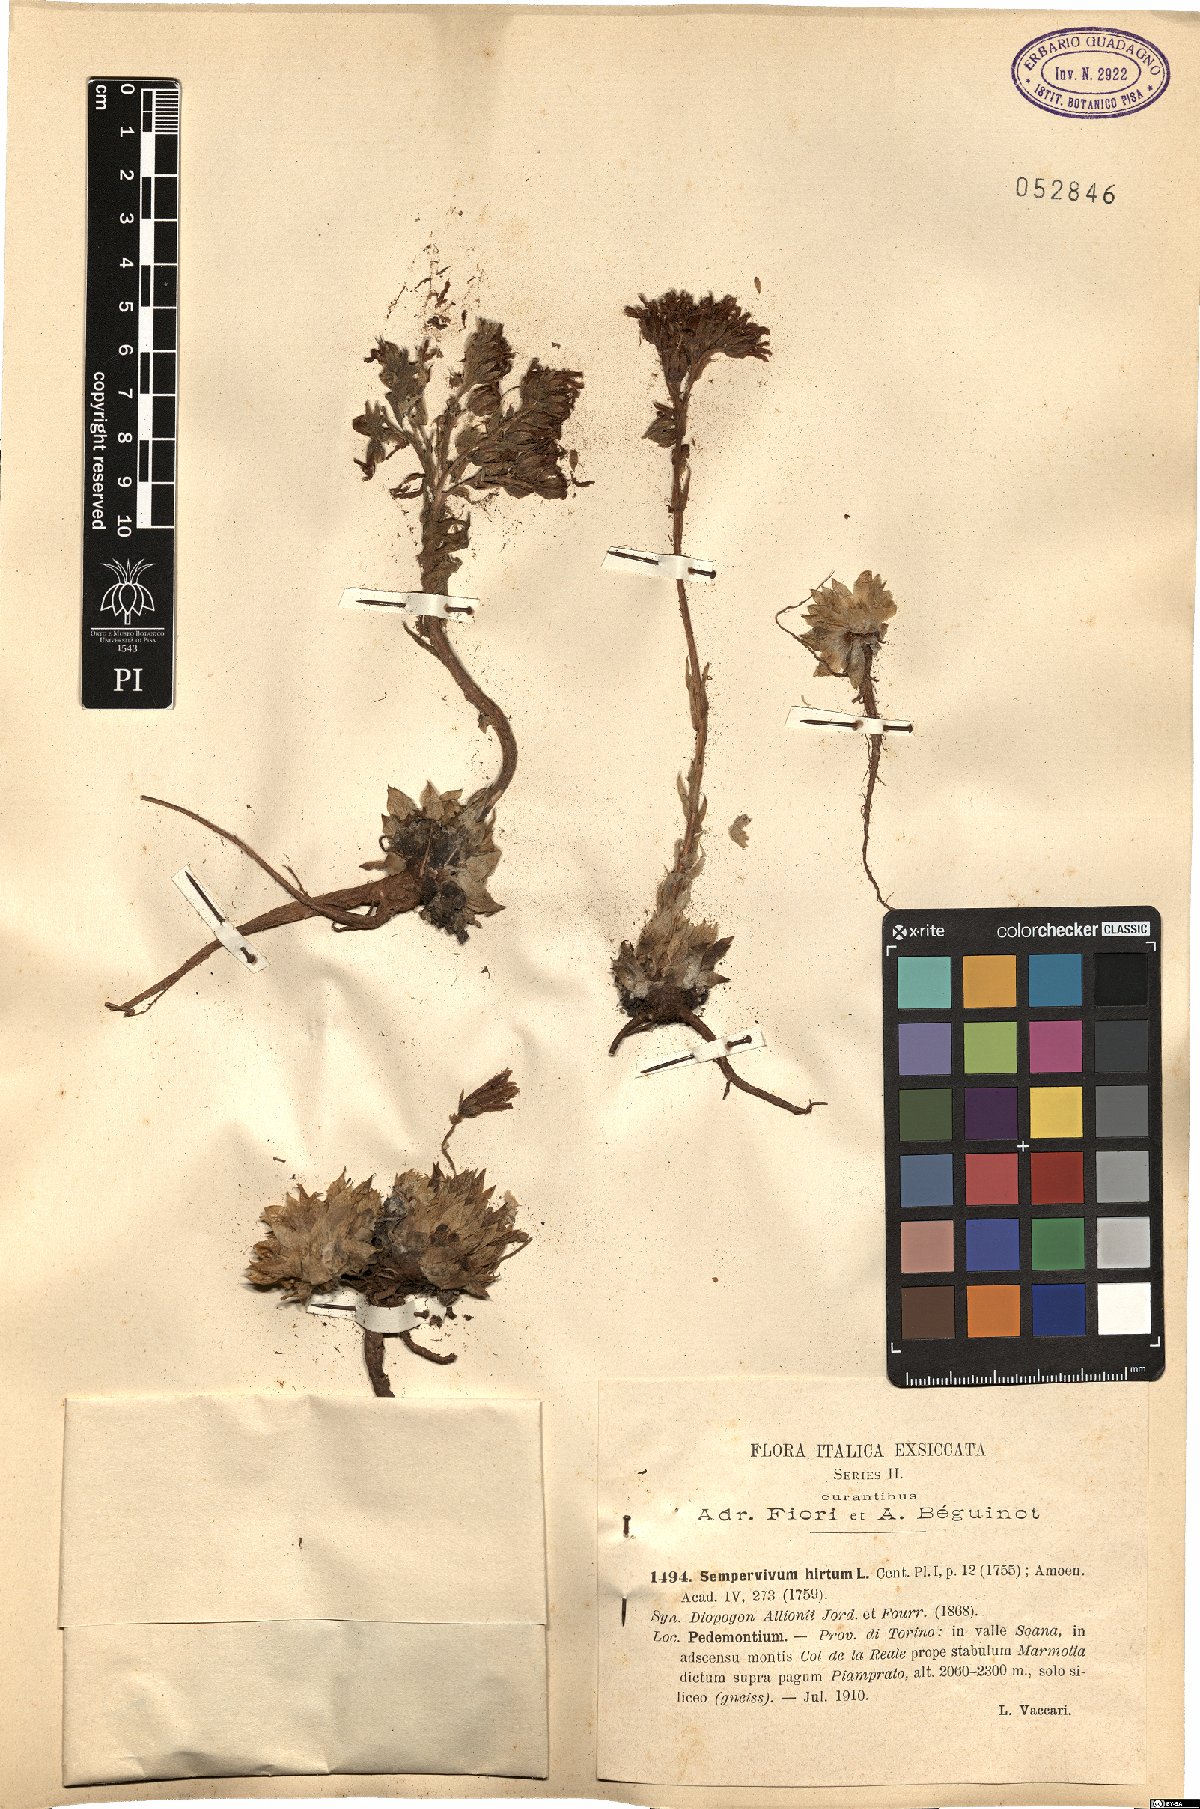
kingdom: Plantae
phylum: Tracheophyta
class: Magnoliopsida
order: Saxifragales
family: Crassulaceae
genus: Sempervivum
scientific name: Sempervivum globiferum
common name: Rolling hen-and-chicks
